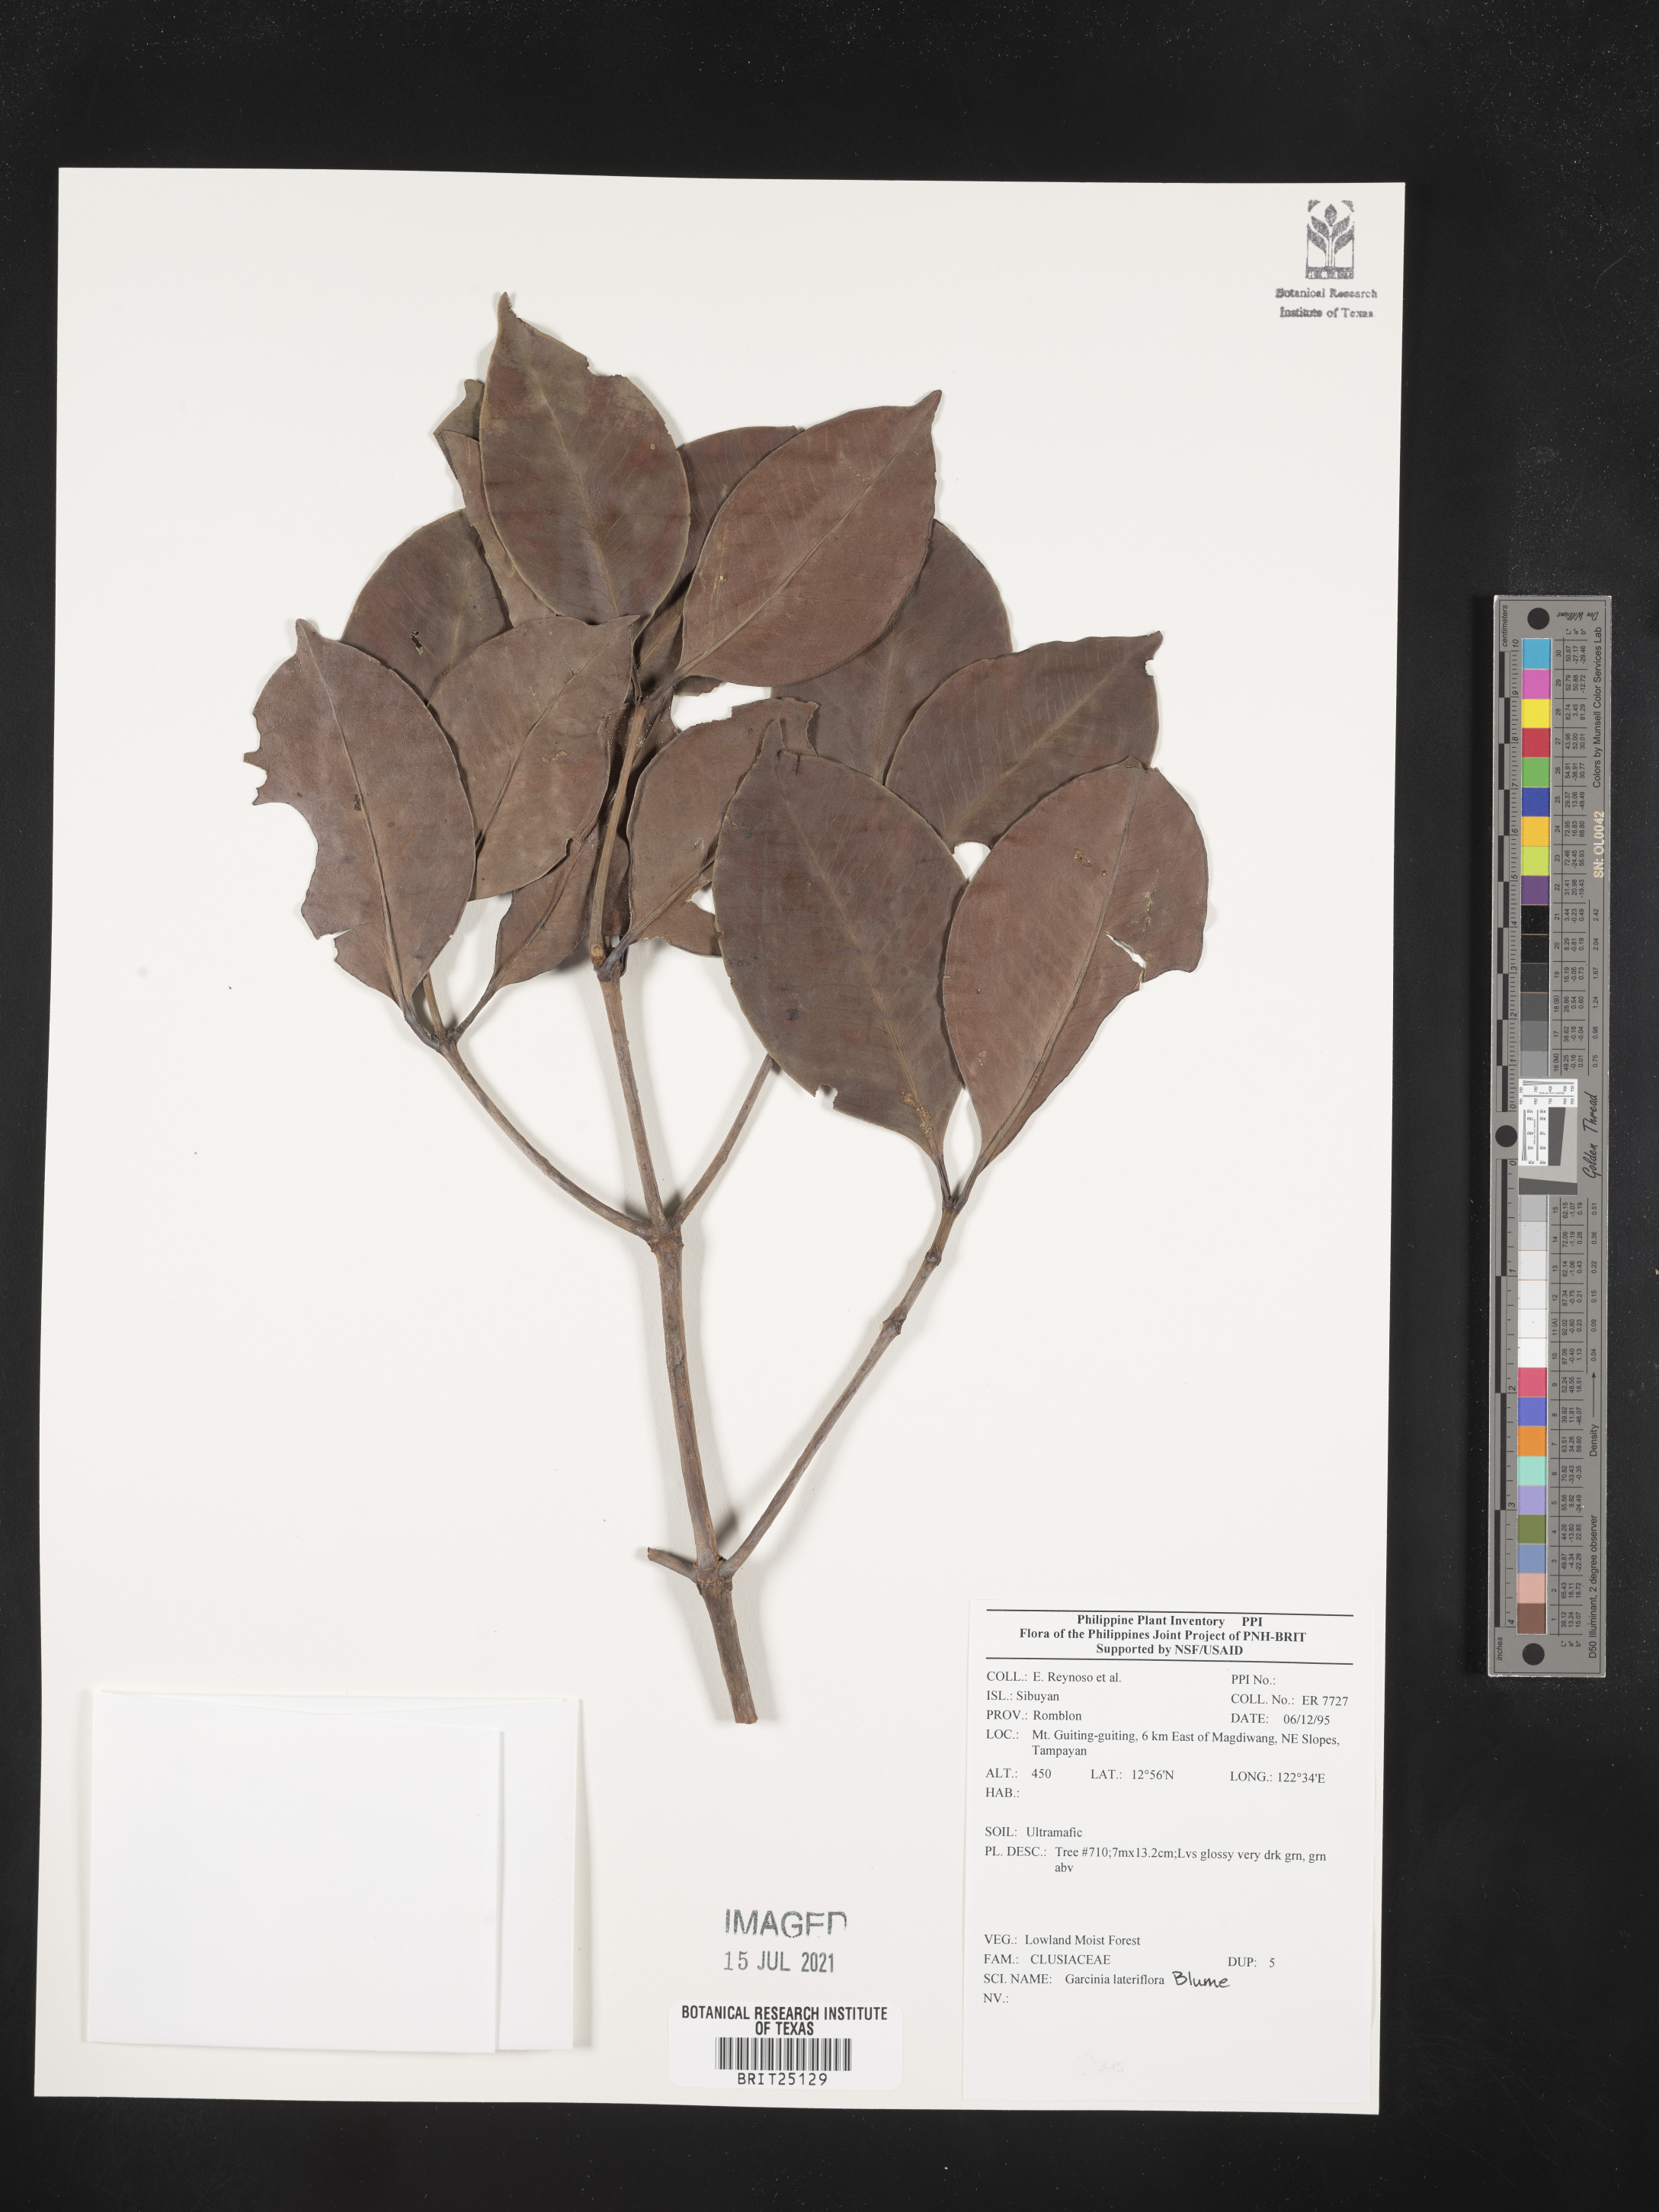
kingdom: Plantae
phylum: Tracheophyta
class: Magnoliopsida
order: Malpighiales
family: Clusiaceae
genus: Garcinia
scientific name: Garcinia lateriflora
